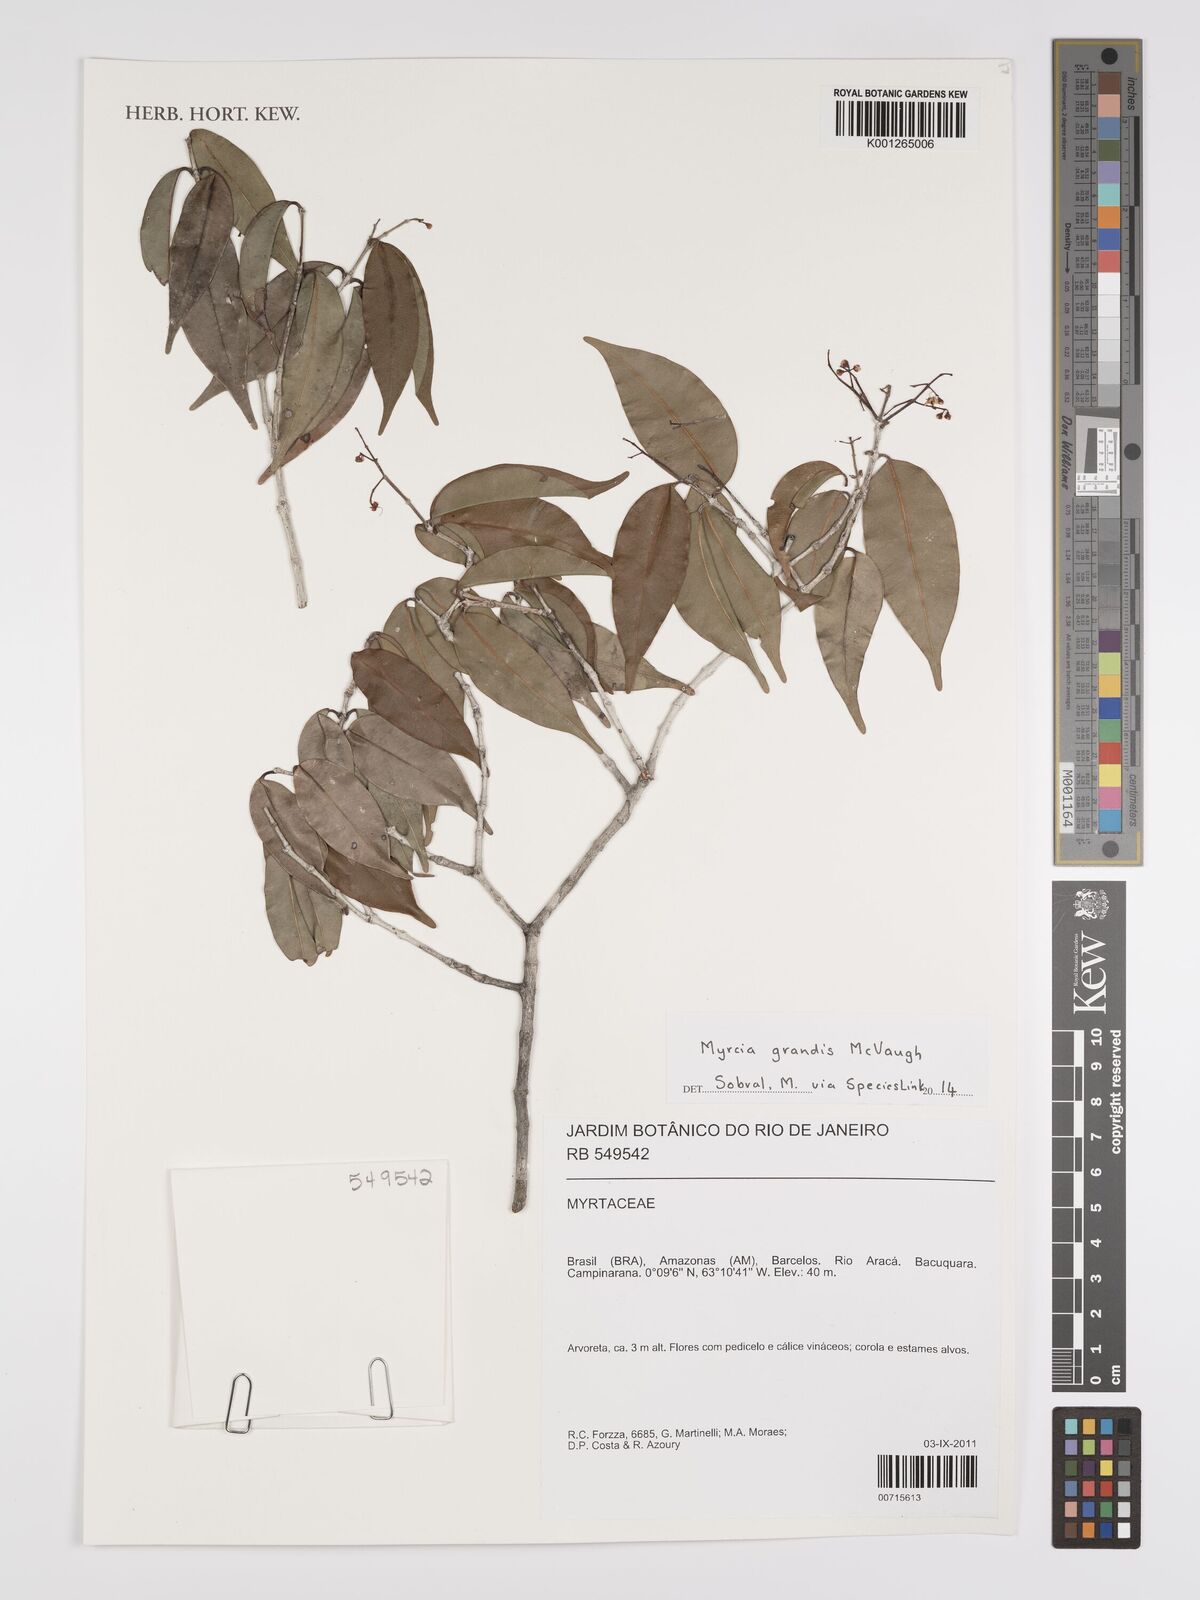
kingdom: Plantae
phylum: Tracheophyta
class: Magnoliopsida
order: Myrtales
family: Myrtaceae
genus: Myrcia
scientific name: Myrcia grandis
